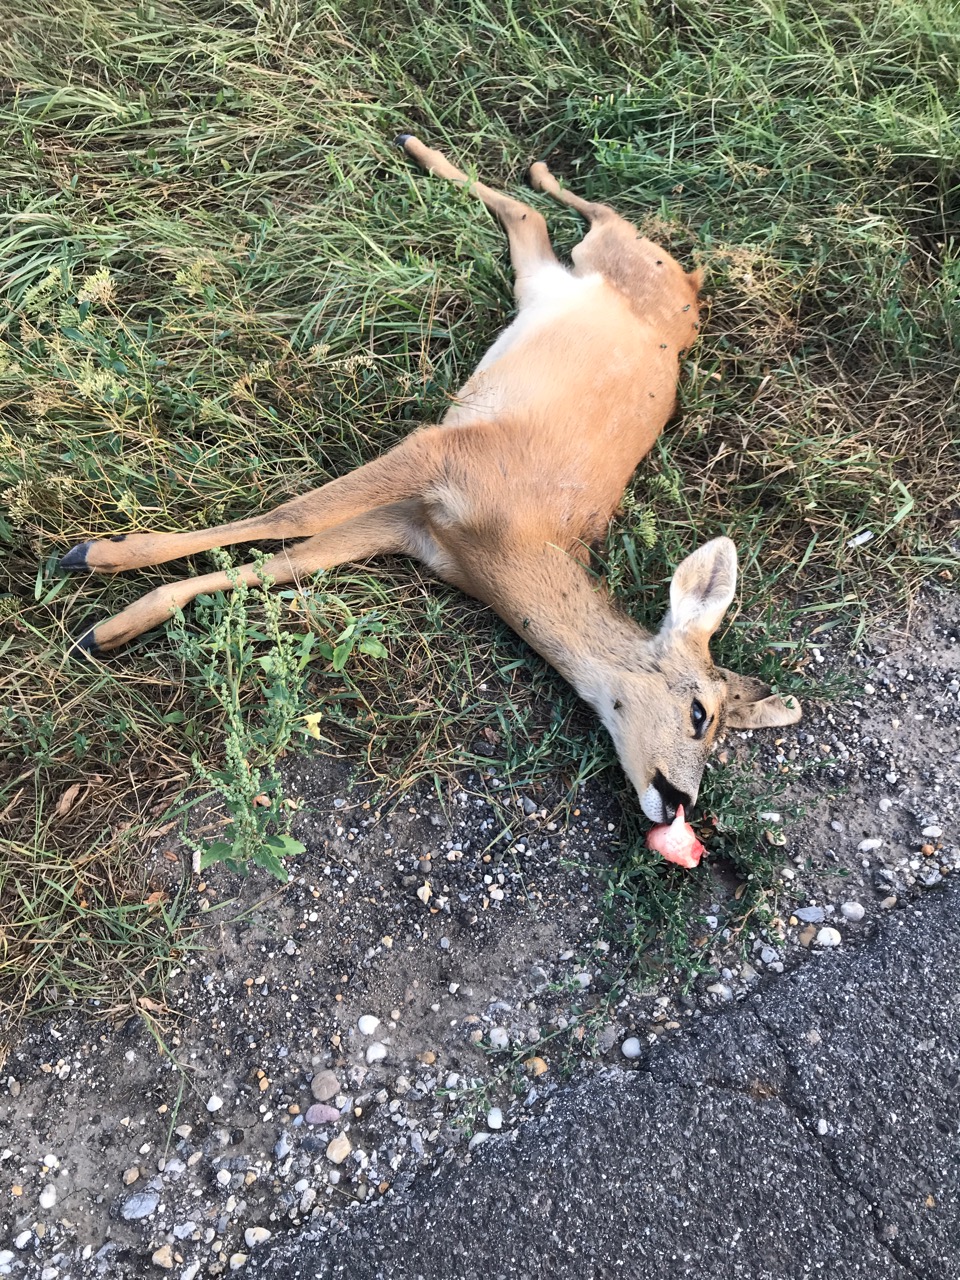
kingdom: Animalia
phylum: Chordata
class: Mammalia
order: Artiodactyla
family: Cervidae
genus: Capreolus
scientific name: Capreolus capreolus
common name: Western roe deer
